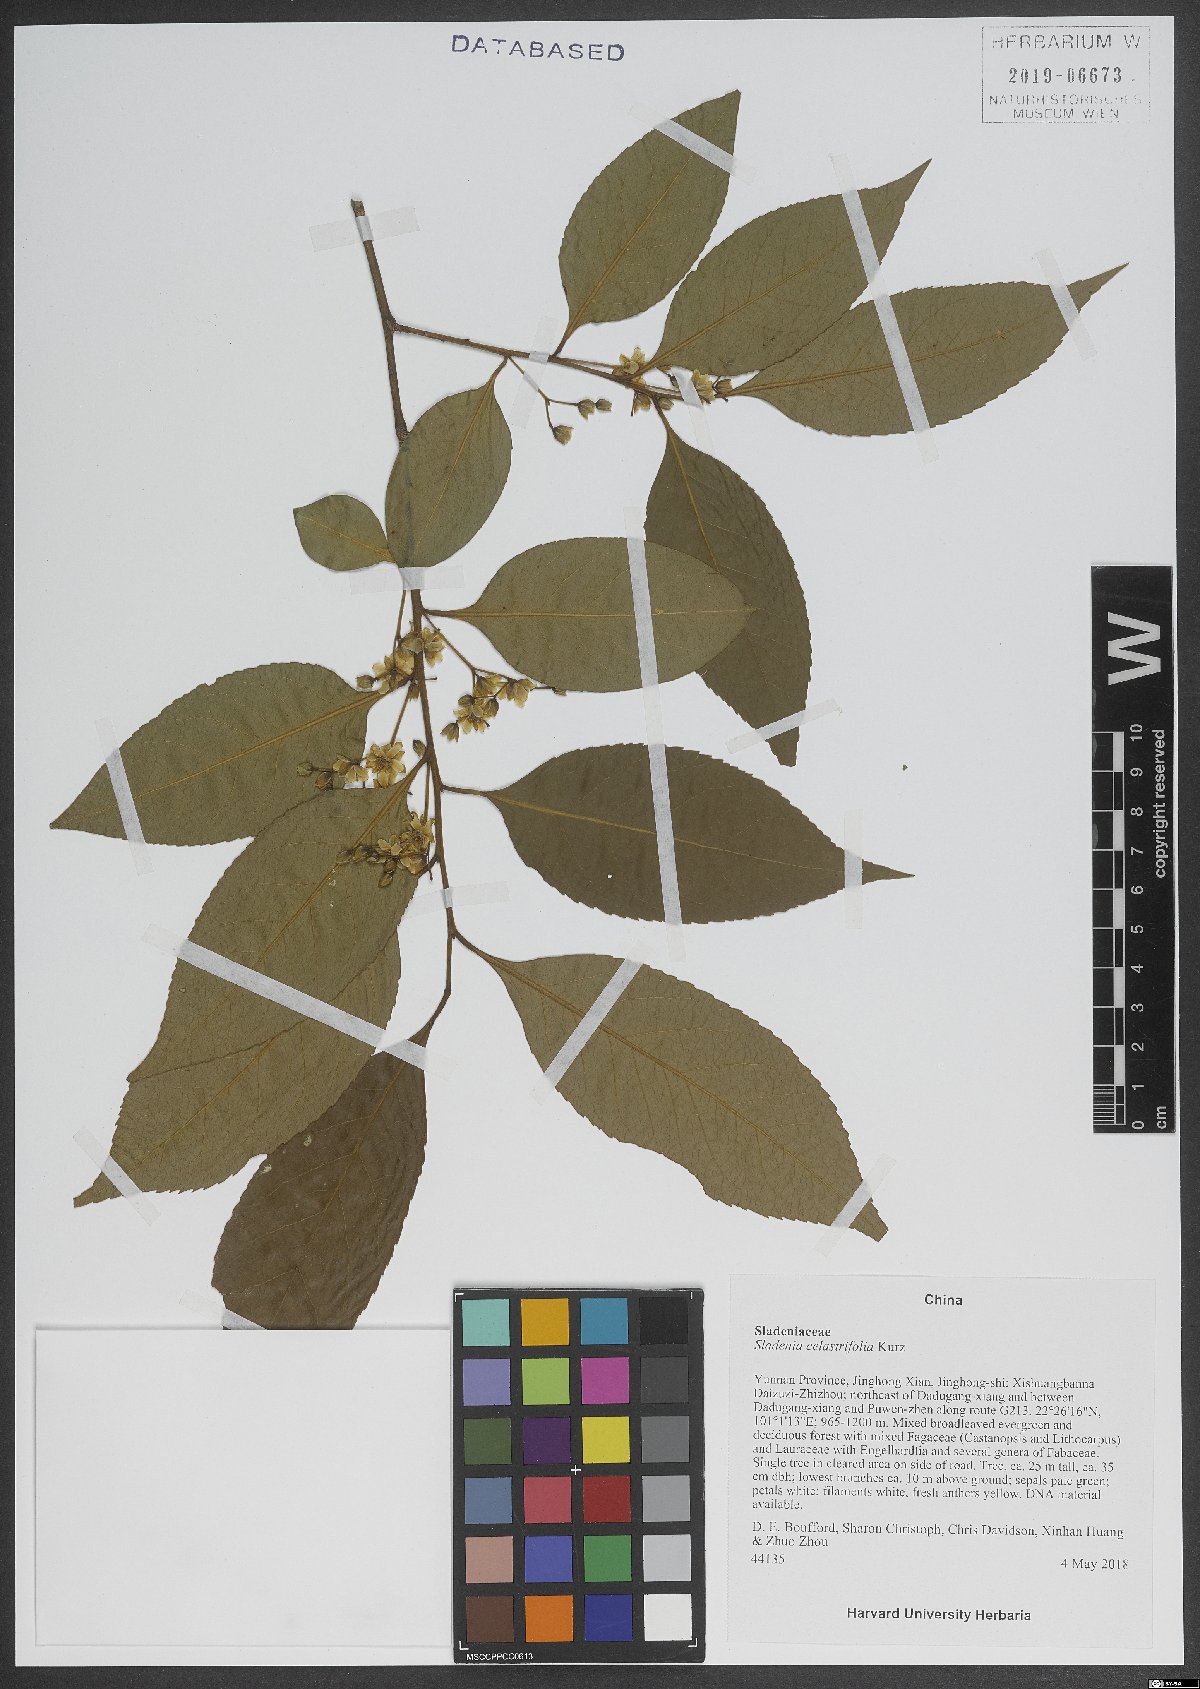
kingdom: Plantae
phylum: Tracheophyta
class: Magnoliopsida
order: Ericales
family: Sladeniaceae
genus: Sladenia
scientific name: Sladenia celastrifolia
